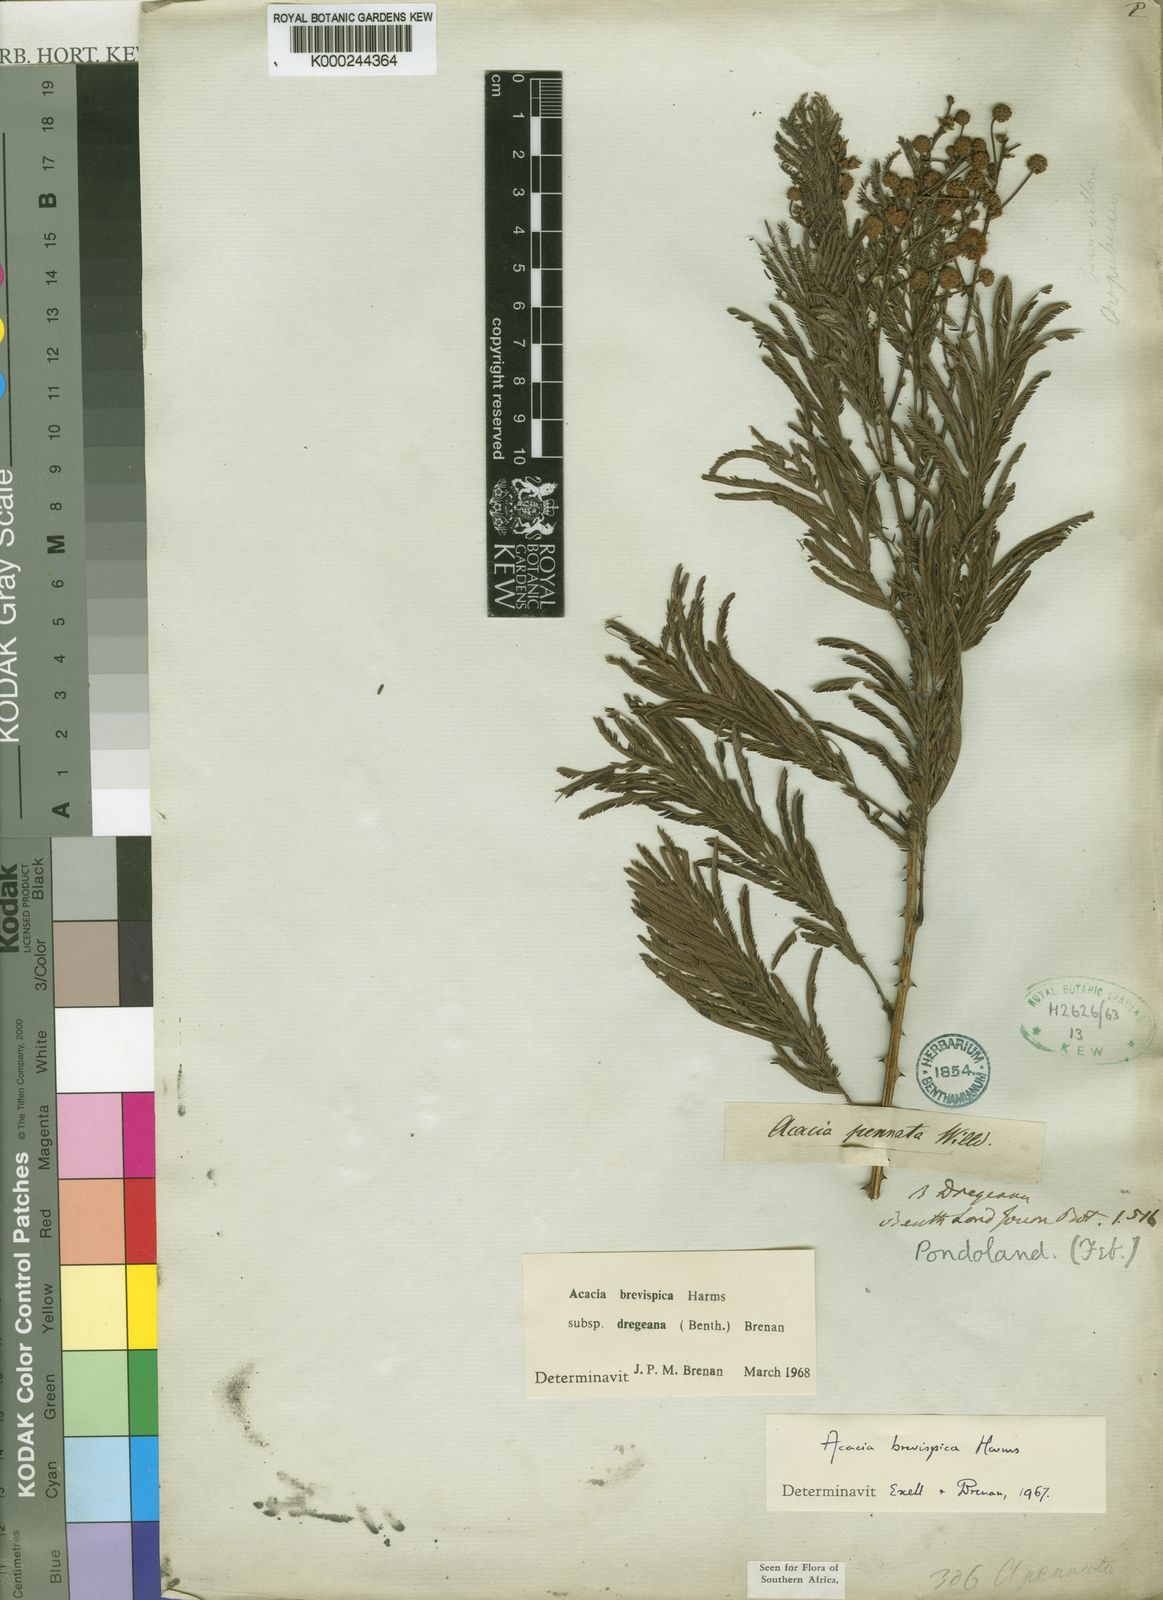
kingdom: Plantae
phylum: Tracheophyta
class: Magnoliopsida
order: Fabales
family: Fabaceae
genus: Senegalia
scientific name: Senegalia brevispica
